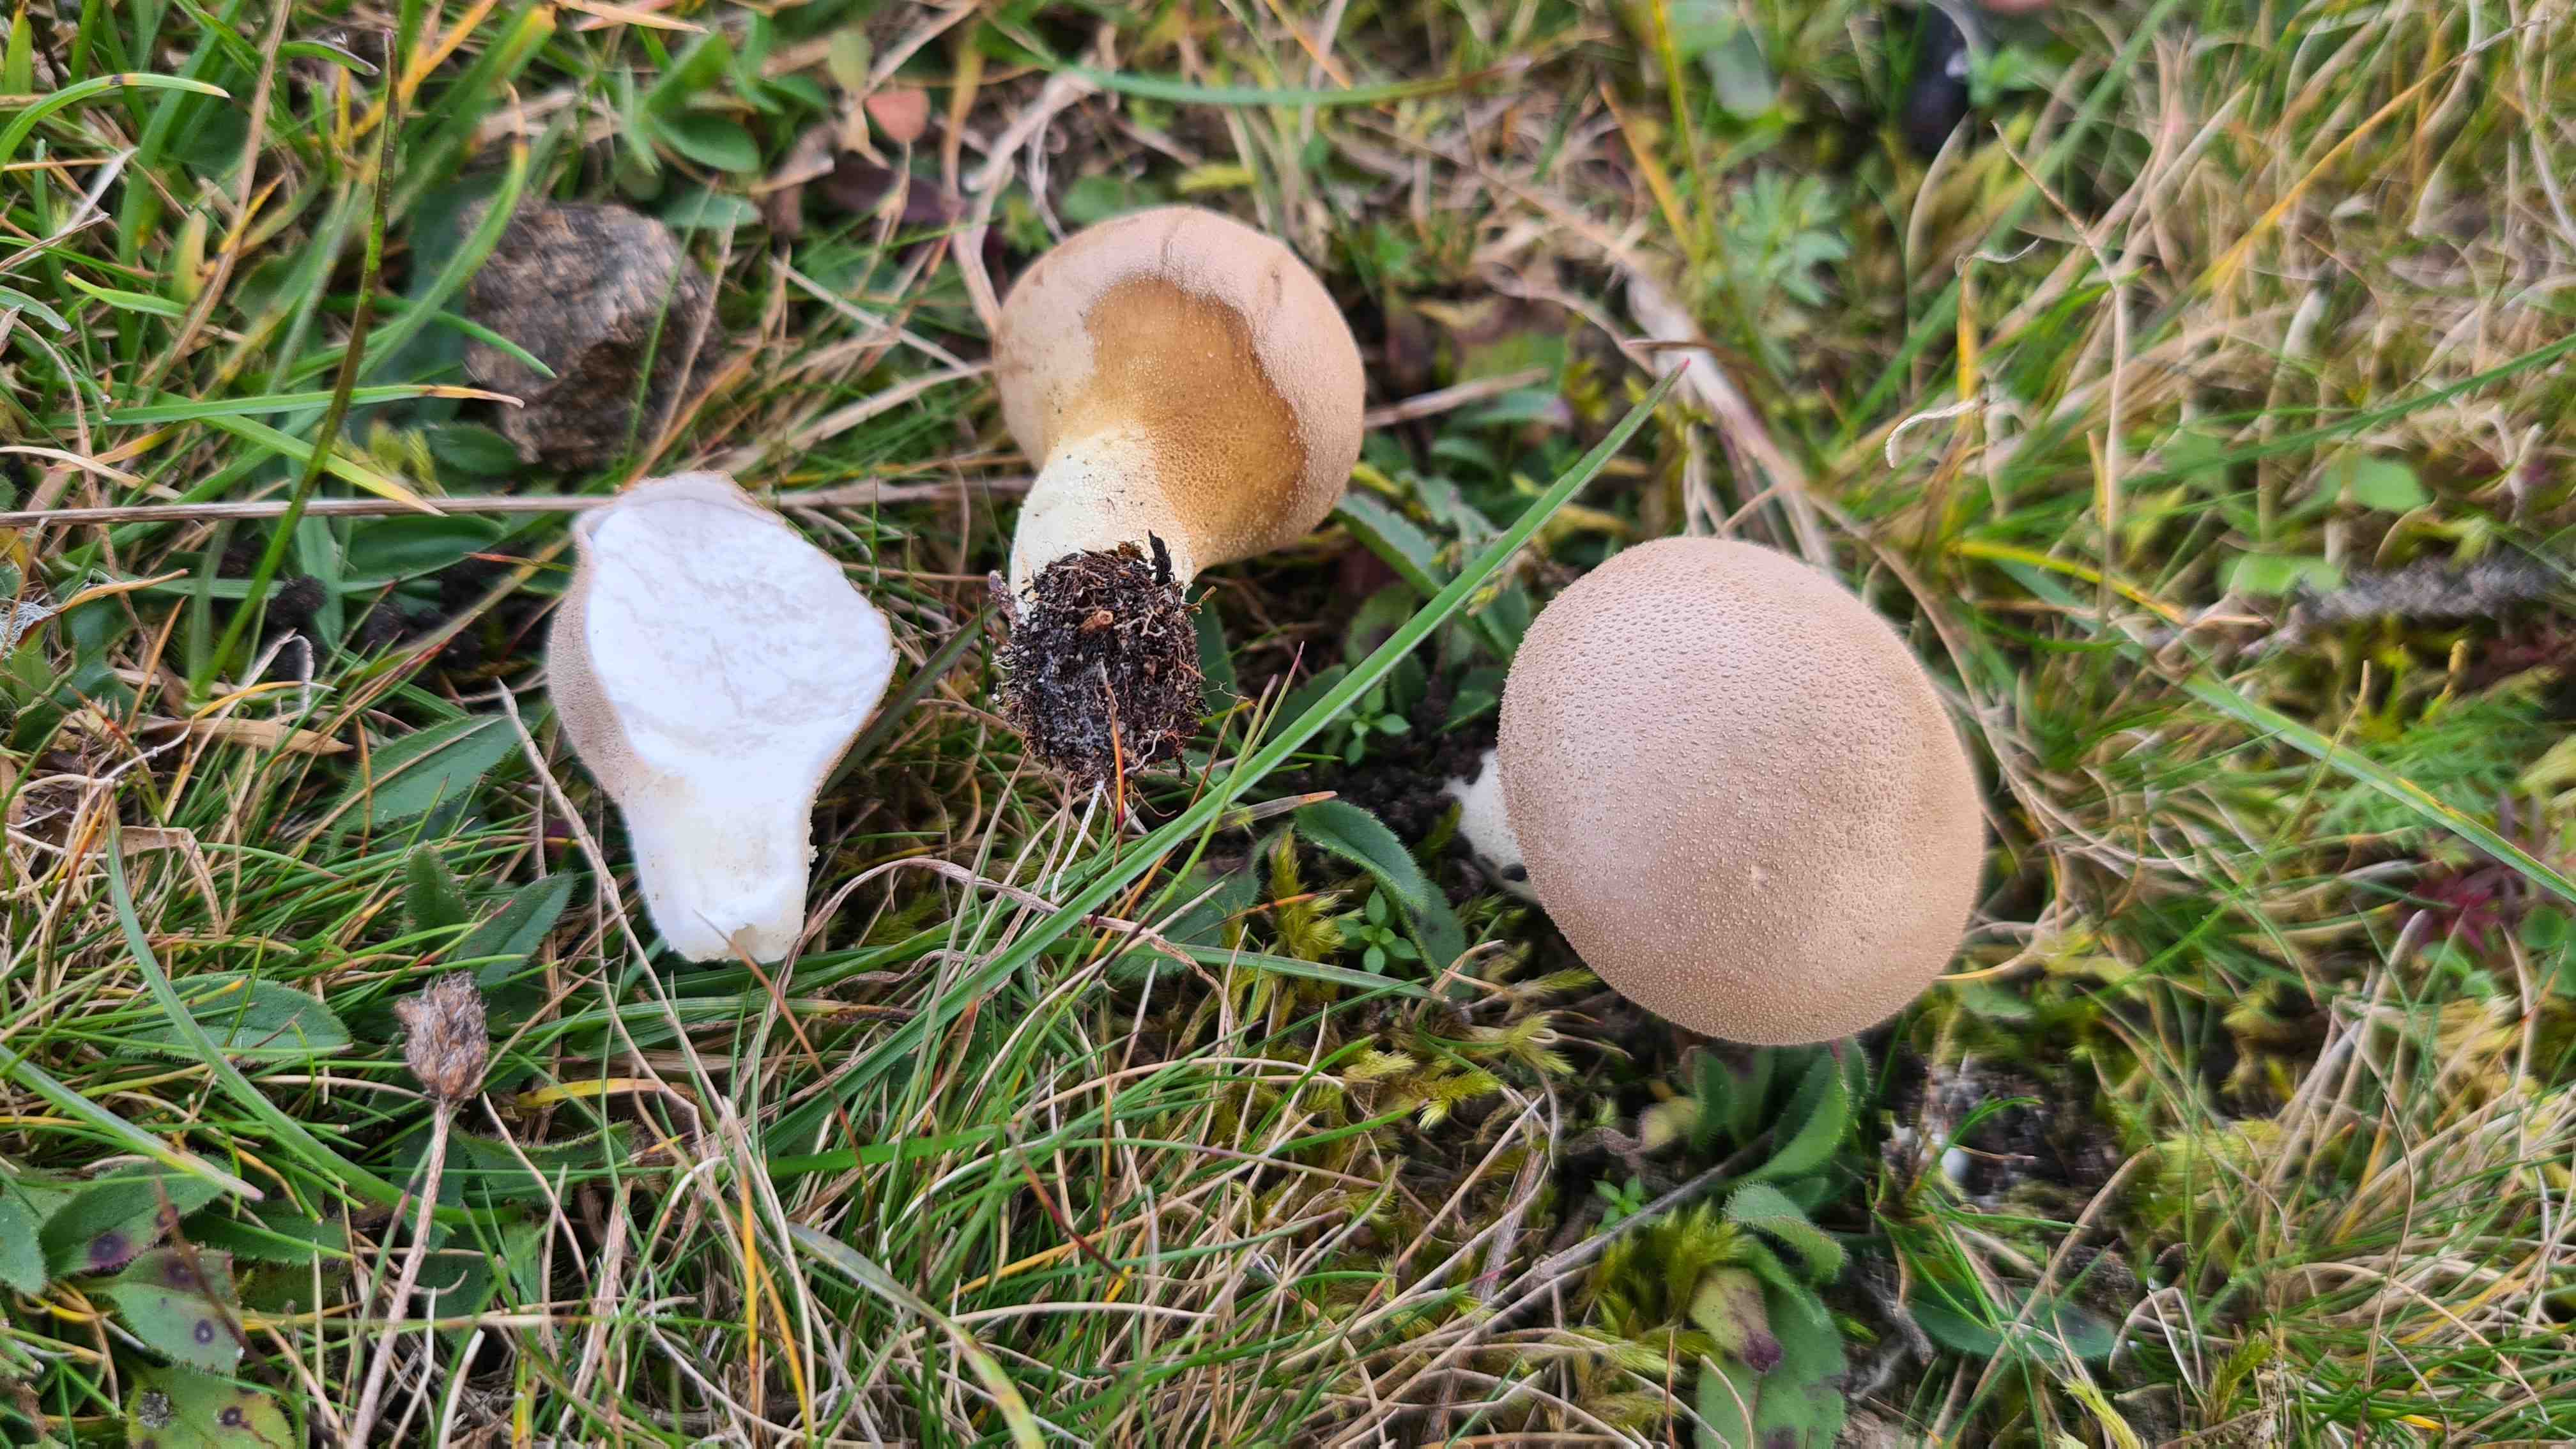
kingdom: Fungi
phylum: Basidiomycota
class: Agaricomycetes
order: Agaricales
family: Lycoperdaceae
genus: Lycoperdon
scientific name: Lycoperdon lividum
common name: mark-støvbold
